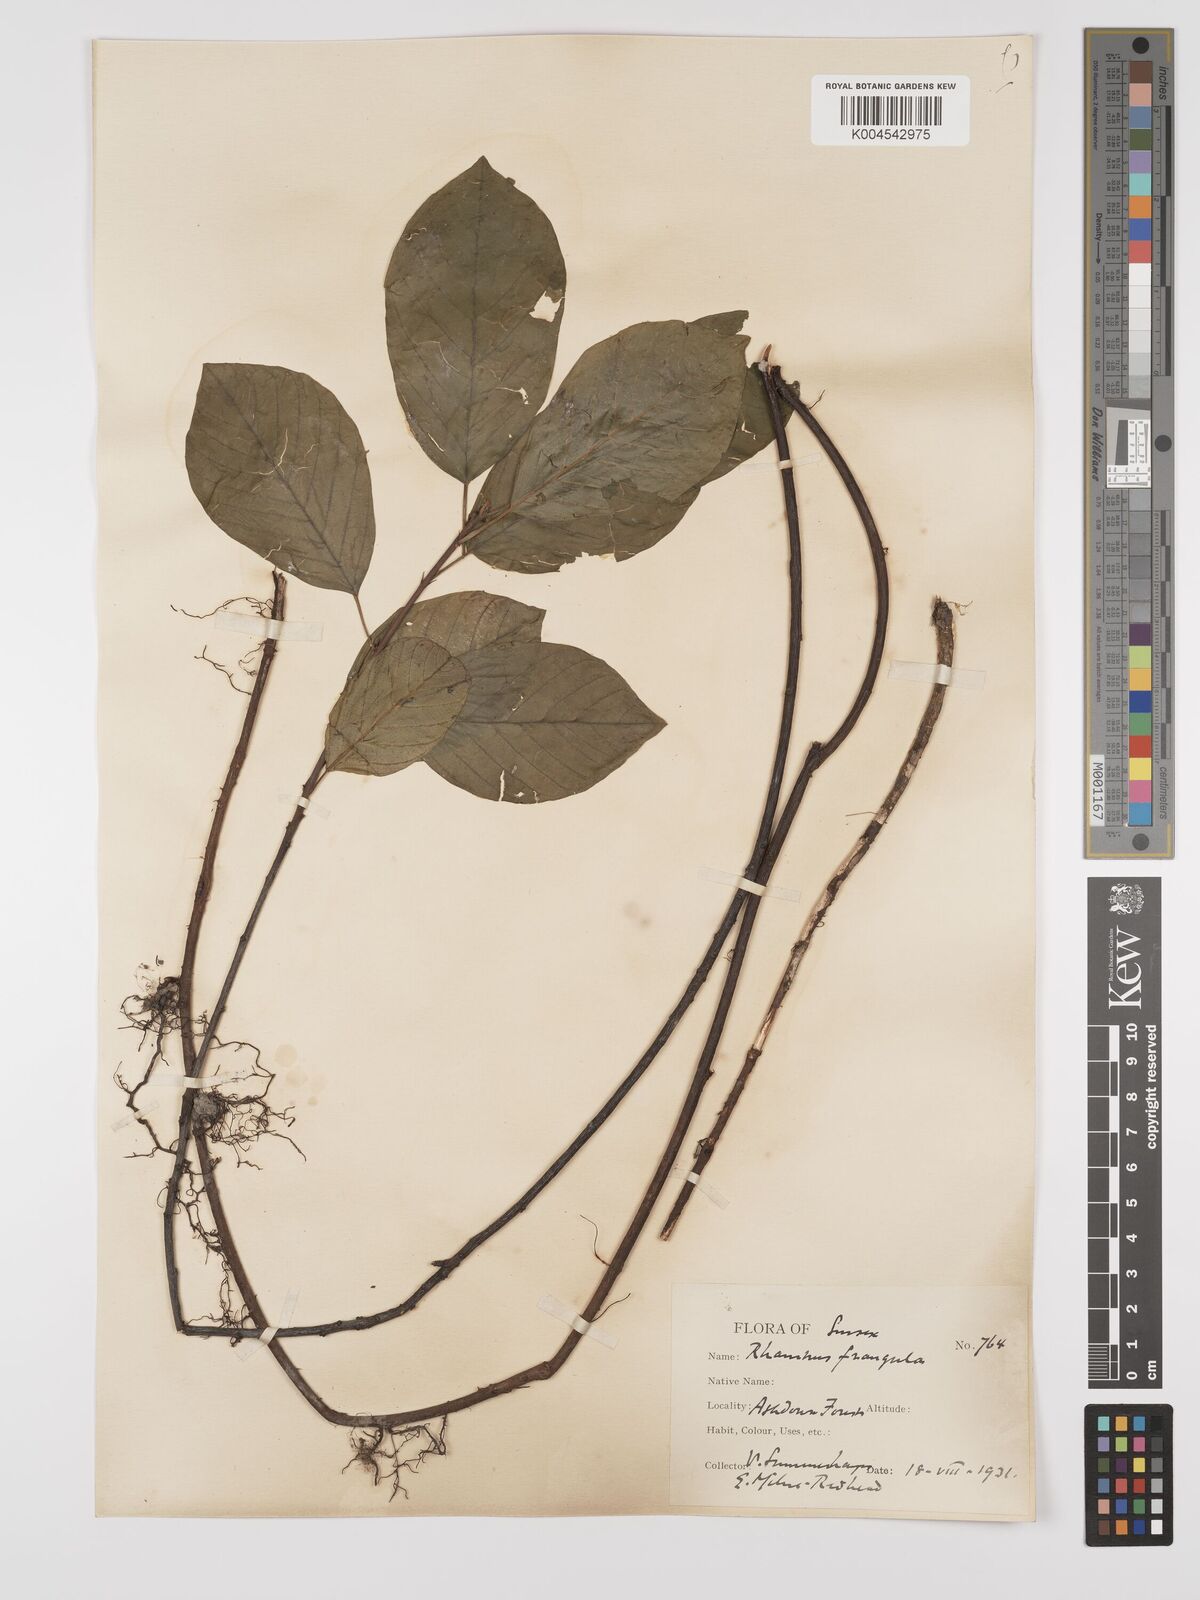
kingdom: Plantae
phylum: Tracheophyta
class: Magnoliopsida
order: Rosales
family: Rhamnaceae
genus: Frangula
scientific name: Frangula alnus
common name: Alder buckthorn
